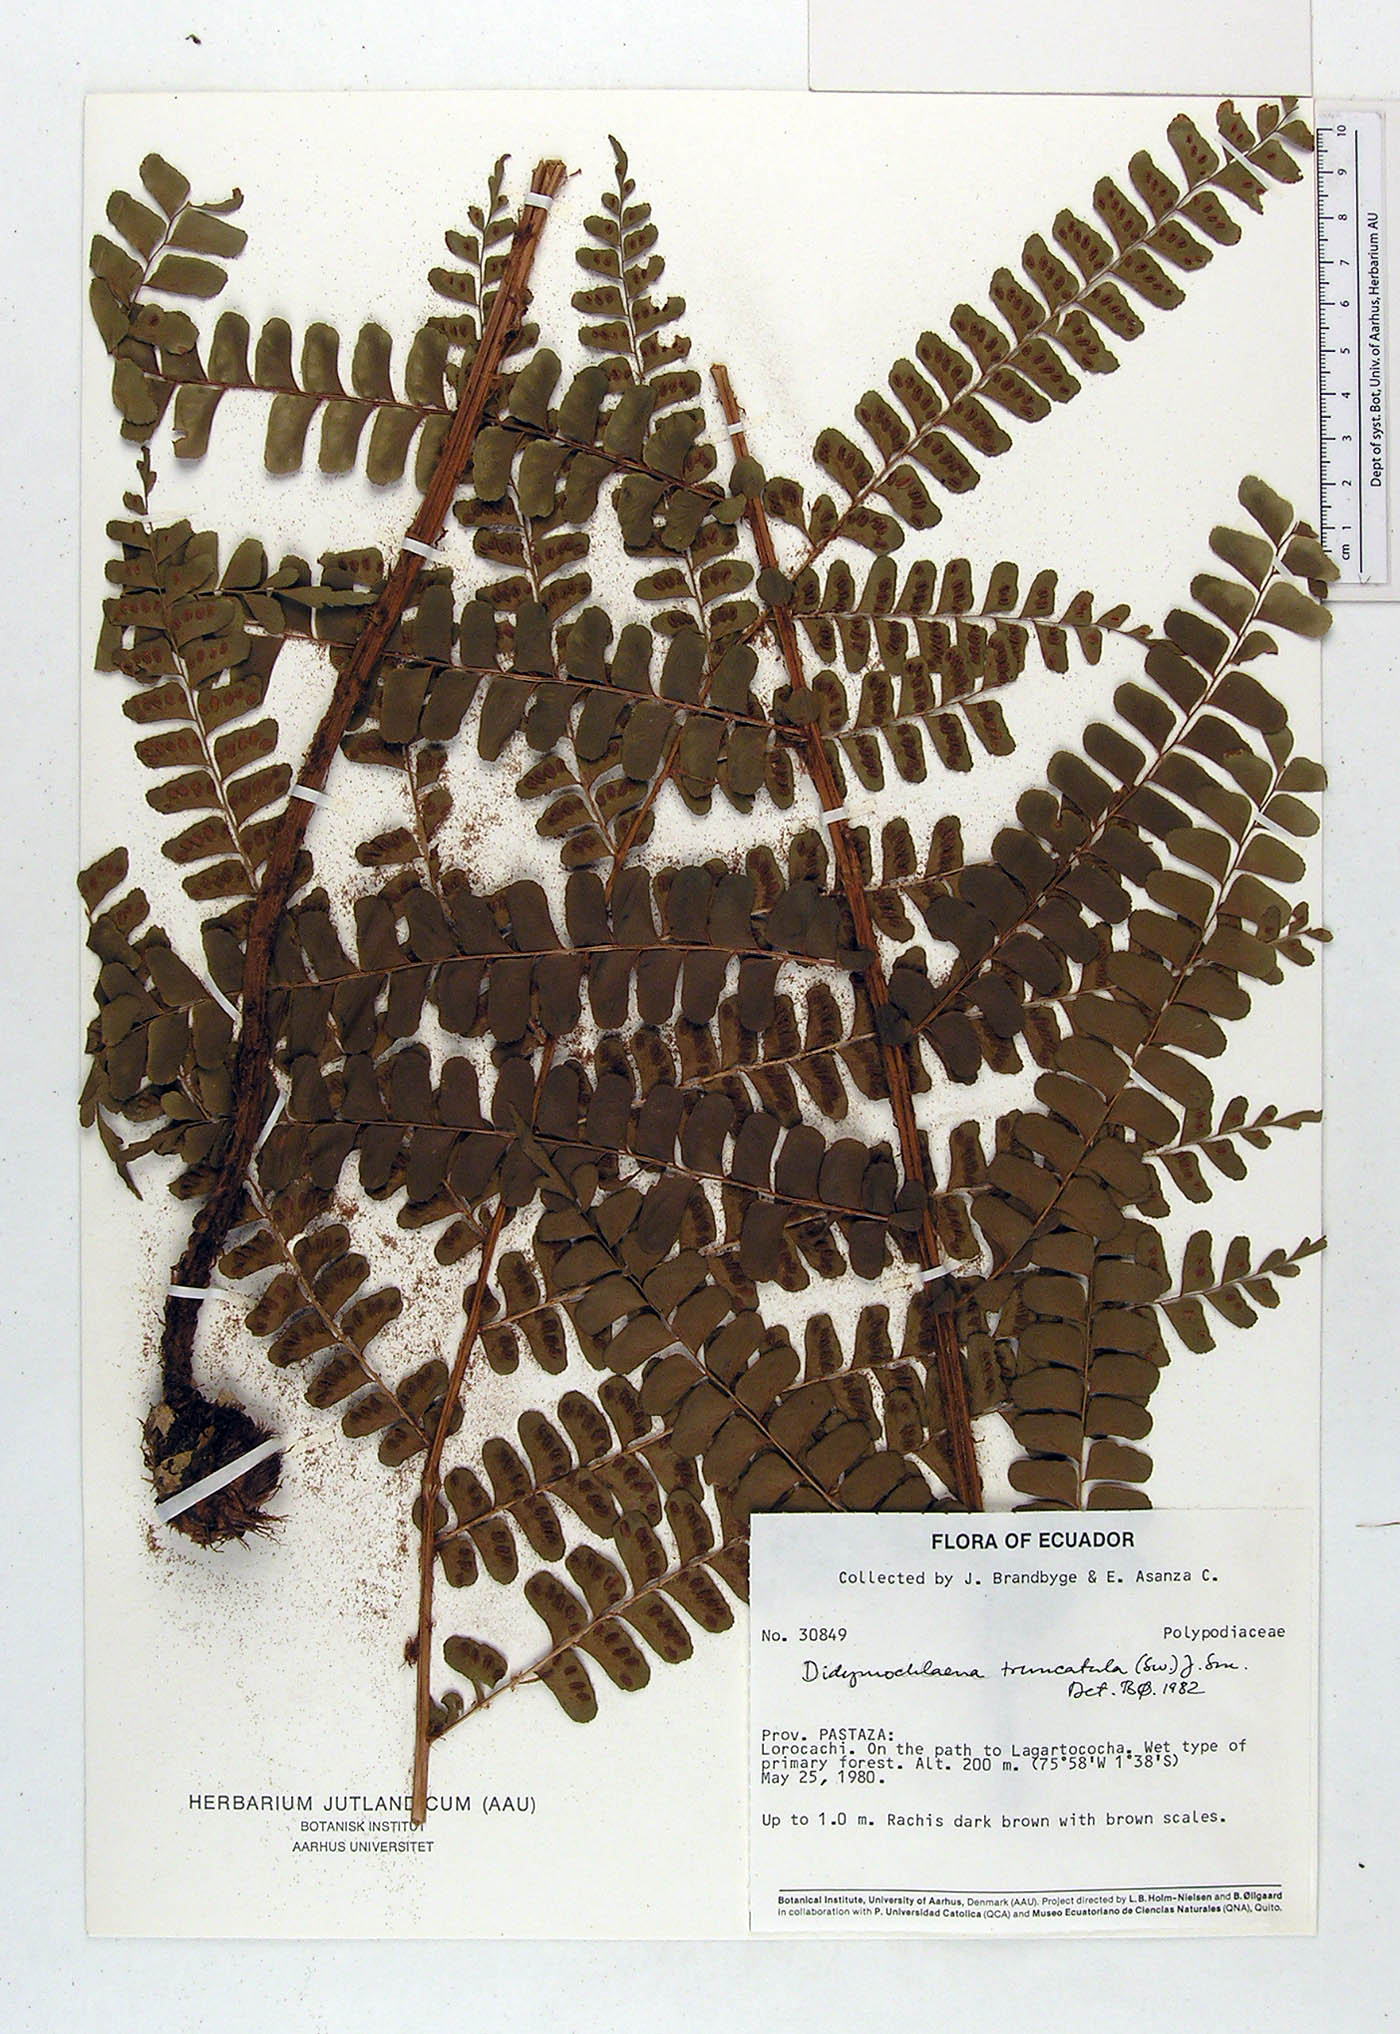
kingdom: Plantae
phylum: Tracheophyta
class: Polypodiopsida
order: Polypodiales
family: Didymochlaenaceae
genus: Didymochlaena
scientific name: Didymochlaena truncatula
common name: Mahogany fern
